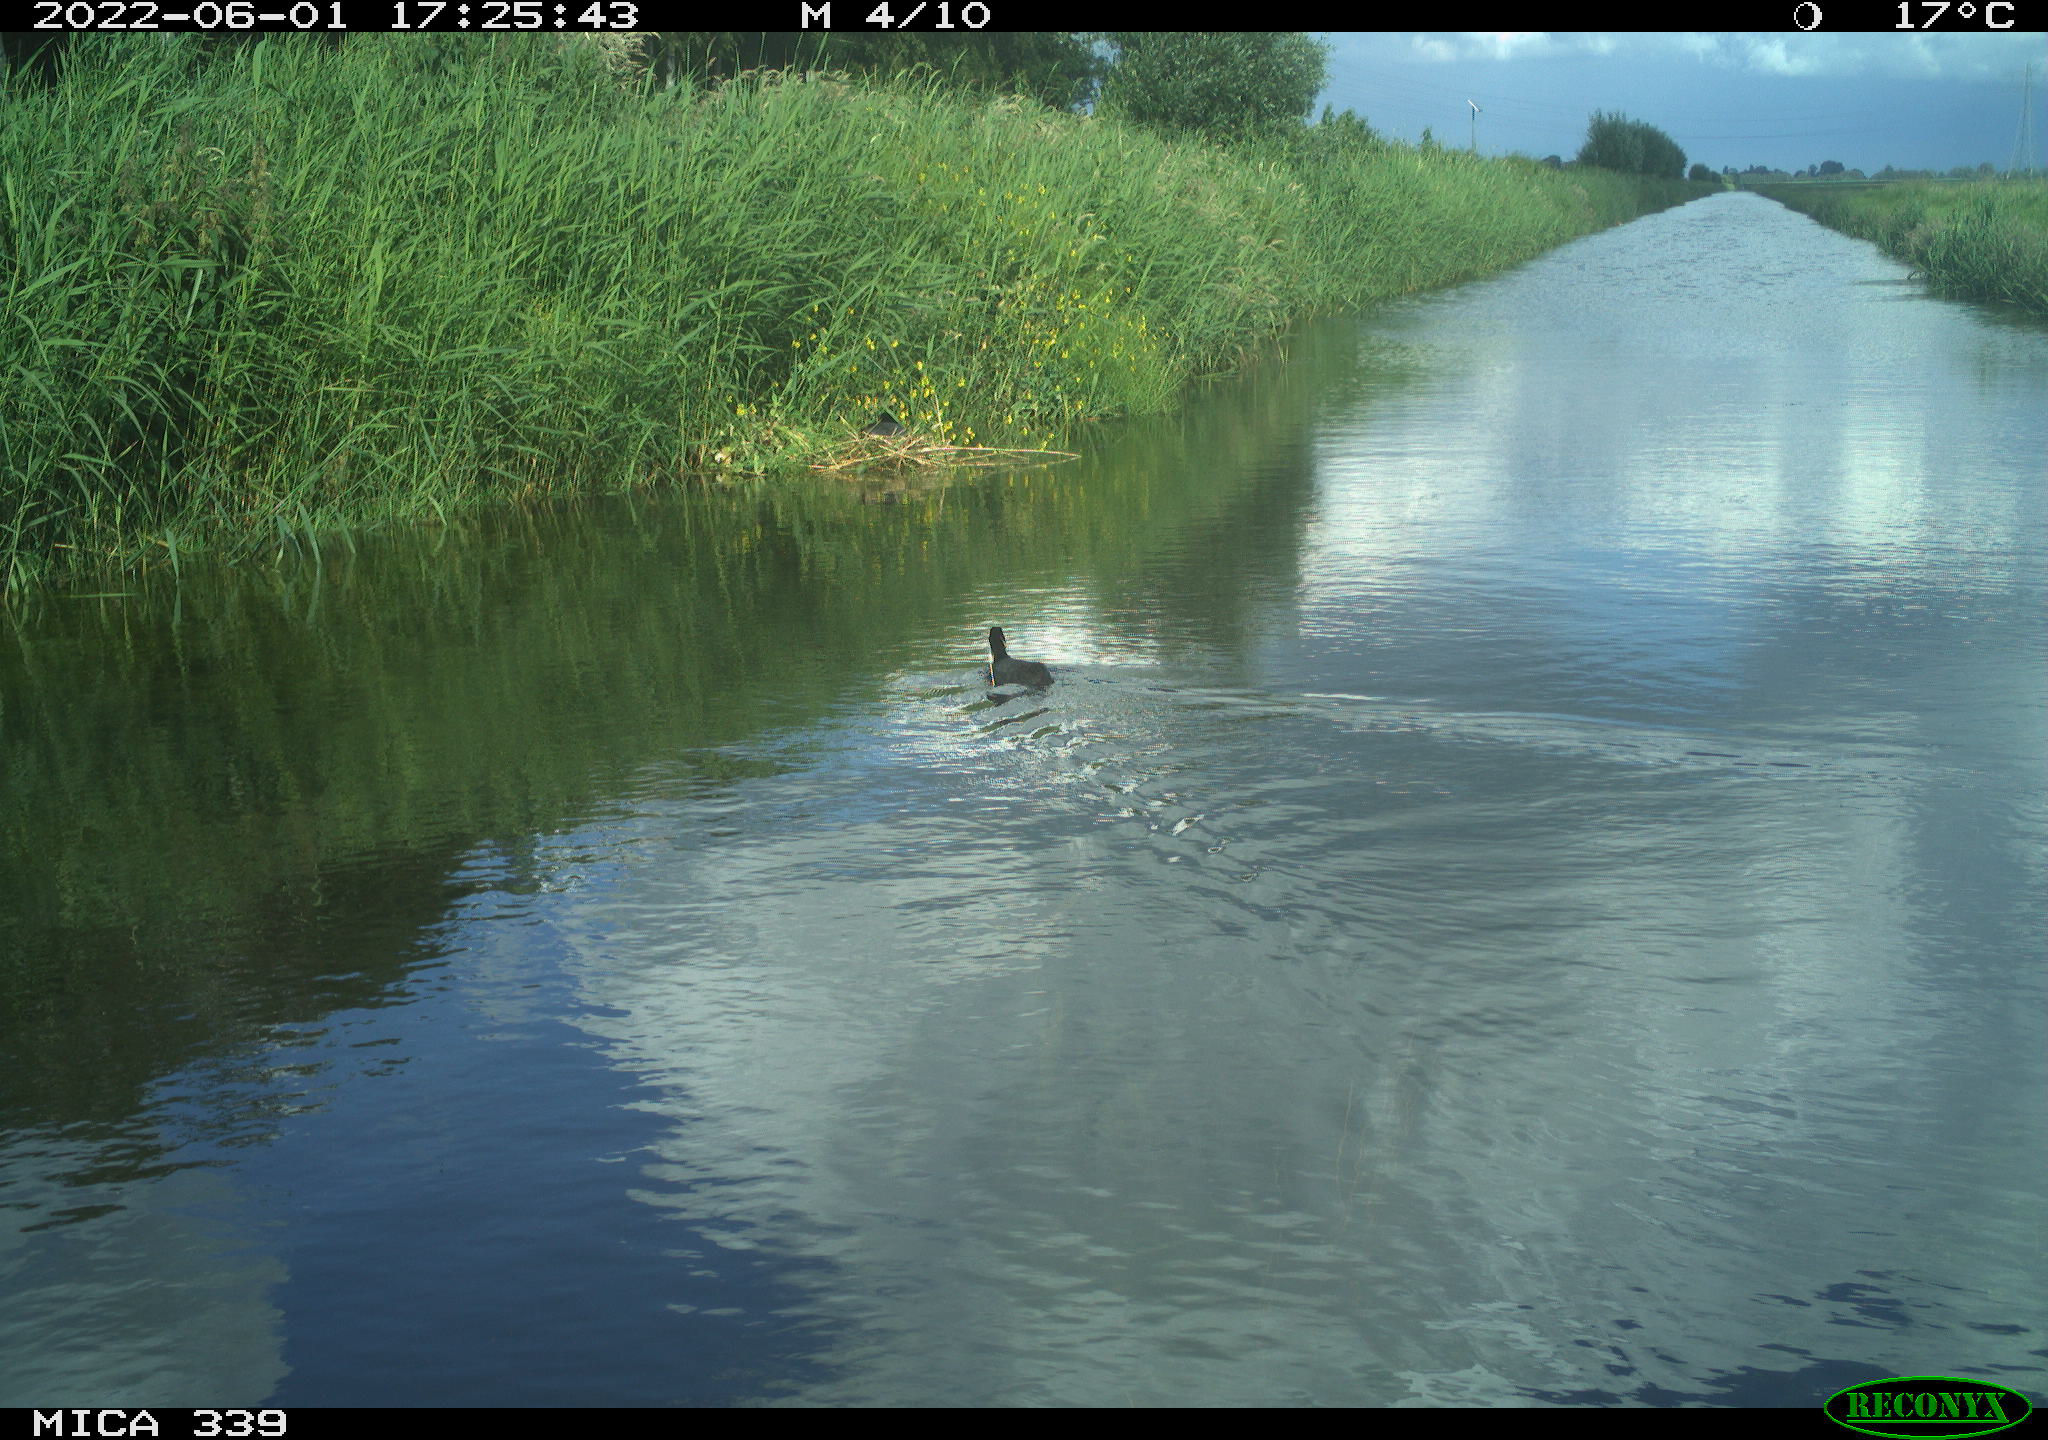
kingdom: Animalia
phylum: Chordata
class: Aves
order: Gruiformes
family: Rallidae
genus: Fulica
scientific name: Fulica atra
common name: Eurasian coot
